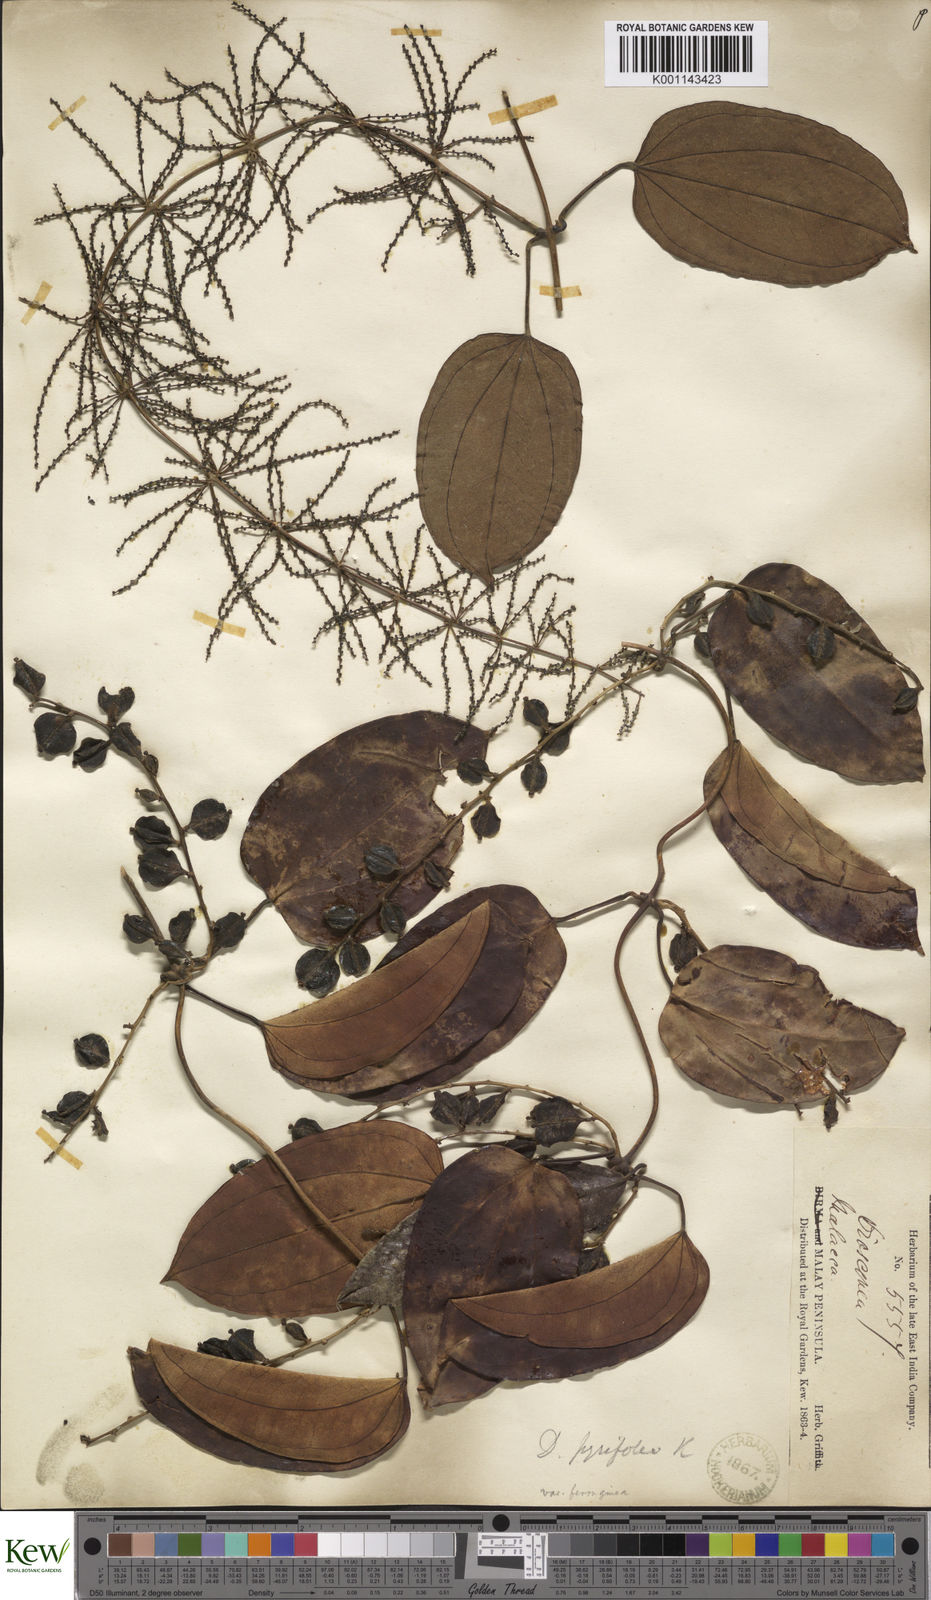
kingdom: Plantae
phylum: Tracheophyta
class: Liliopsida
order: Dioscoreales
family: Dioscoreaceae
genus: Dioscorea
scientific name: Dioscorea pyrifolia
